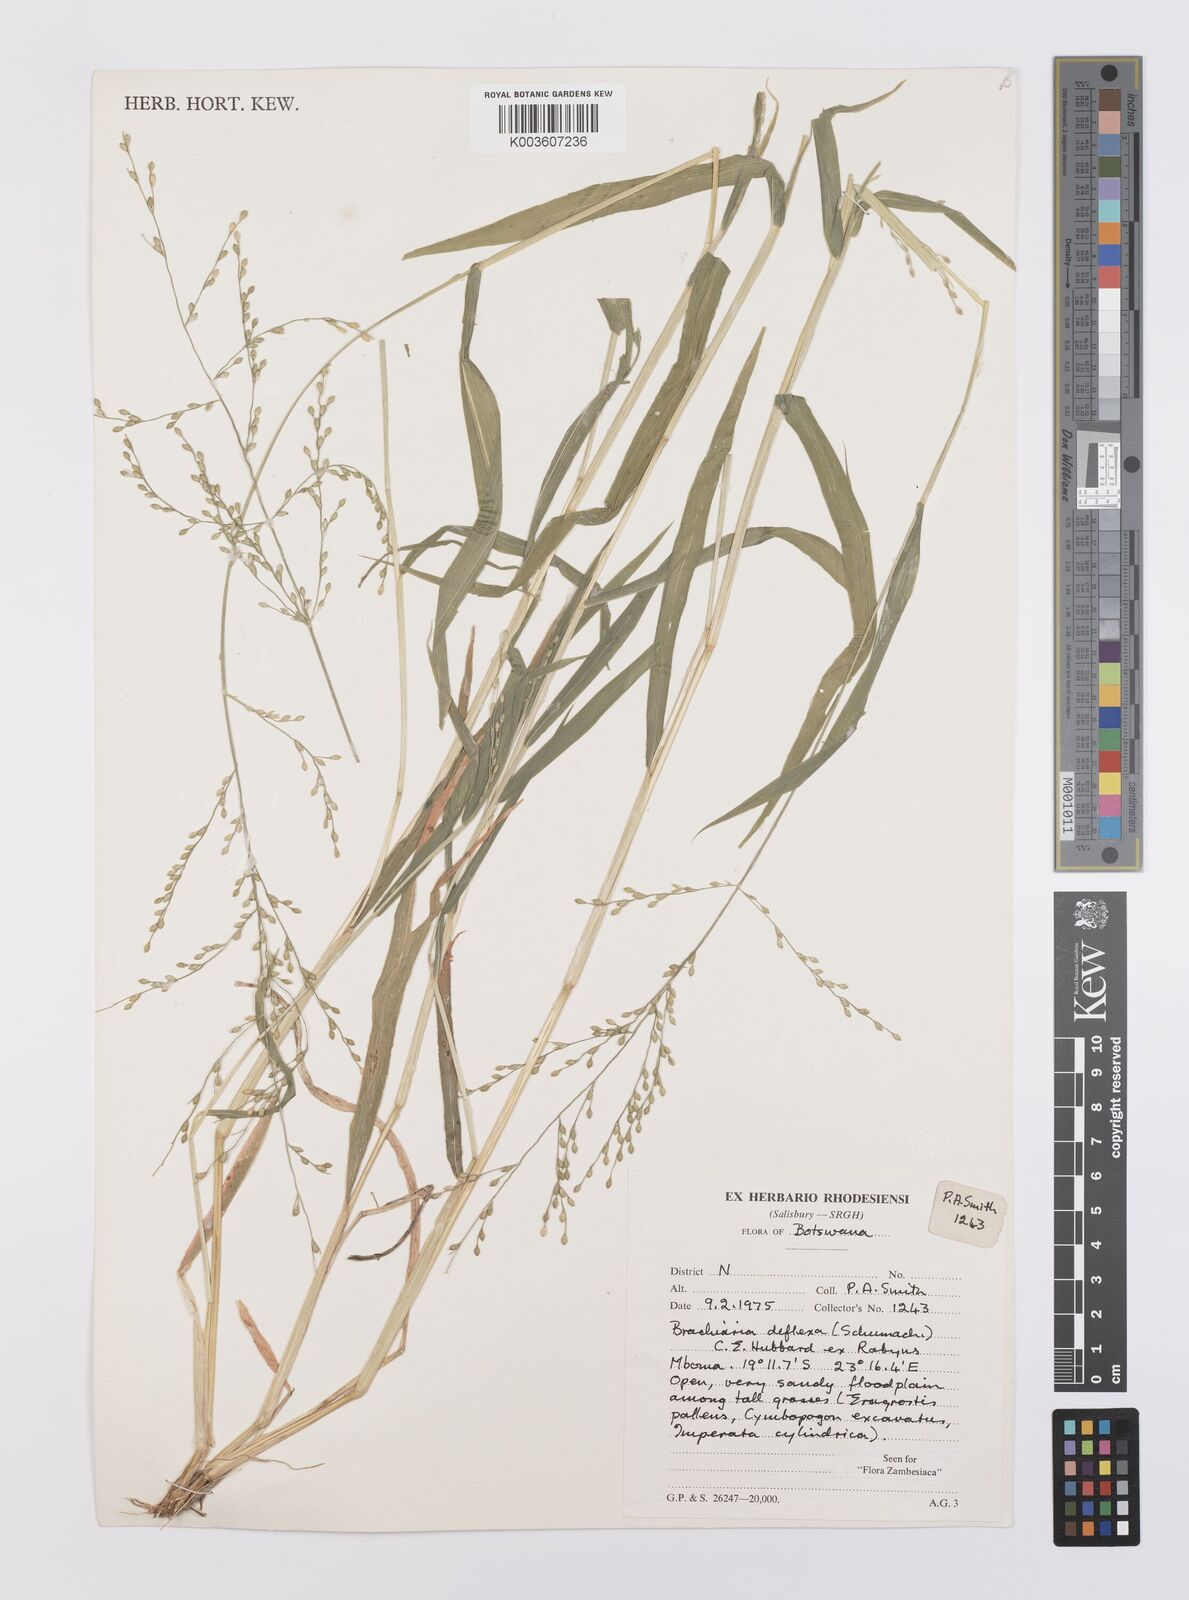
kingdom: Plantae
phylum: Tracheophyta
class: Liliopsida
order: Poales
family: Poaceae
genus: Urochloa
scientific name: Urochloa deflexa
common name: Guinea millet
